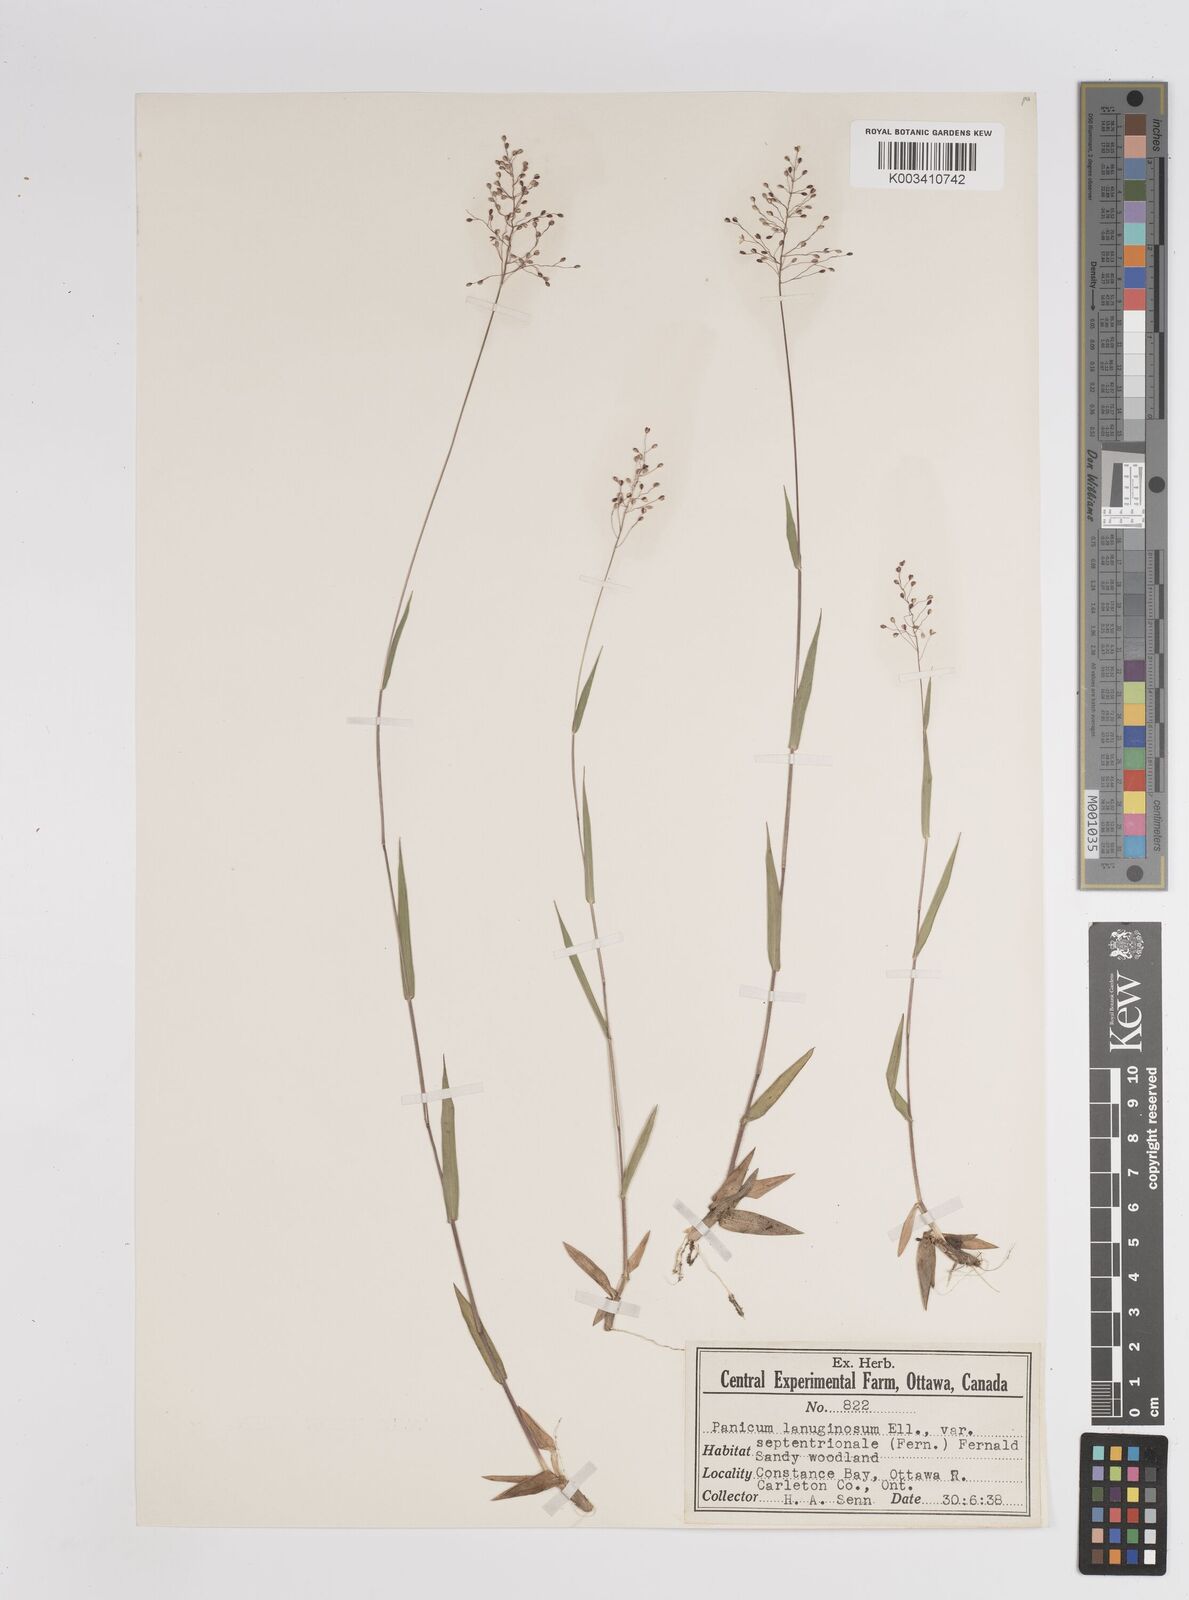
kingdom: Plantae
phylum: Tracheophyta
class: Liliopsida
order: Poales
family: Poaceae
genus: Dichanthelium
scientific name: Dichanthelium lanuginosum
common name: Woolly panicgrass
